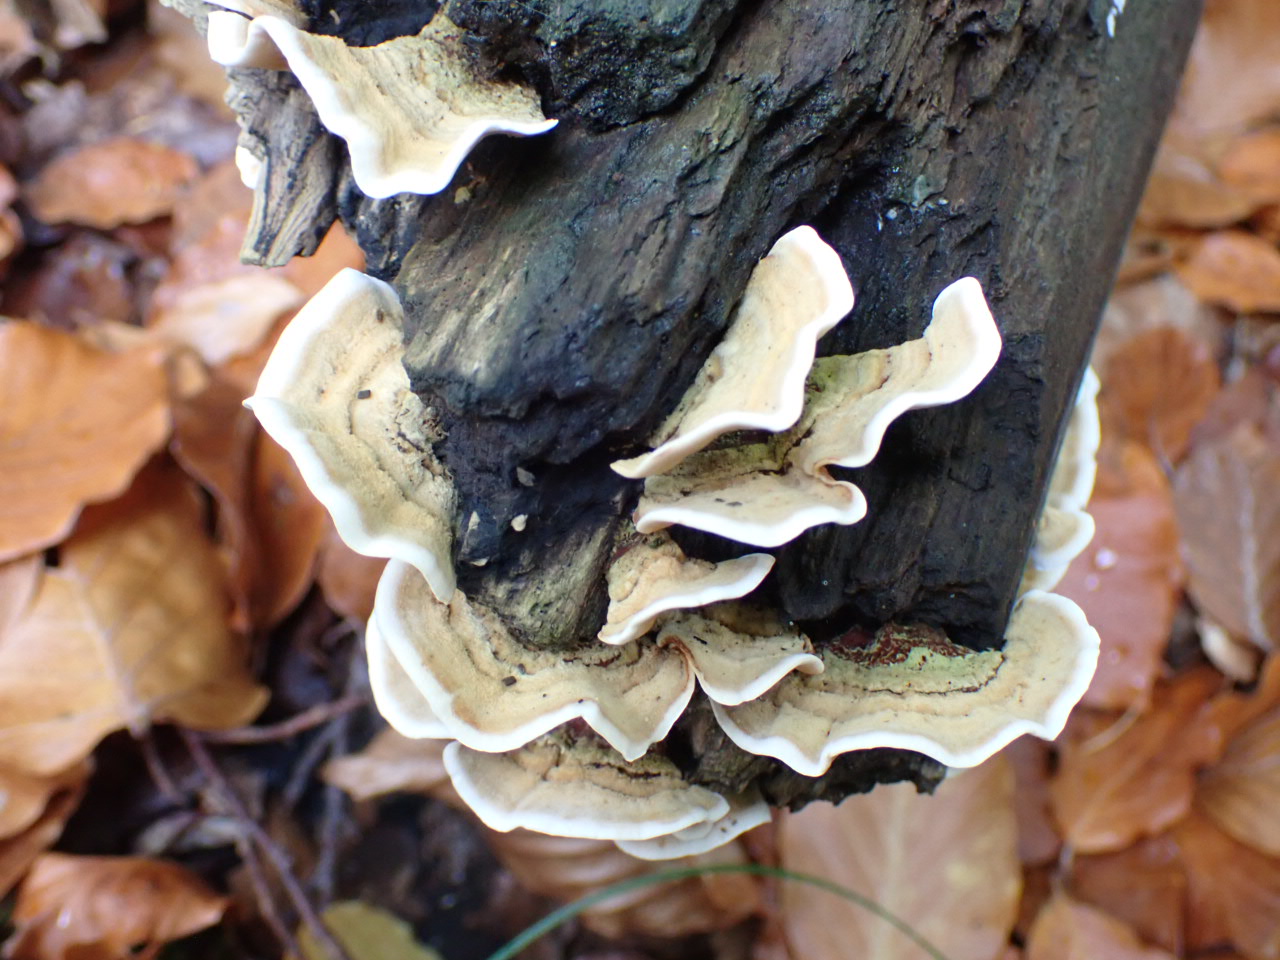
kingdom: Fungi
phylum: Basidiomycota
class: Agaricomycetes
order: Russulales
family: Stereaceae
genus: Stereum
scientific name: Stereum subtomentosum
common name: smuk lædersvamp
